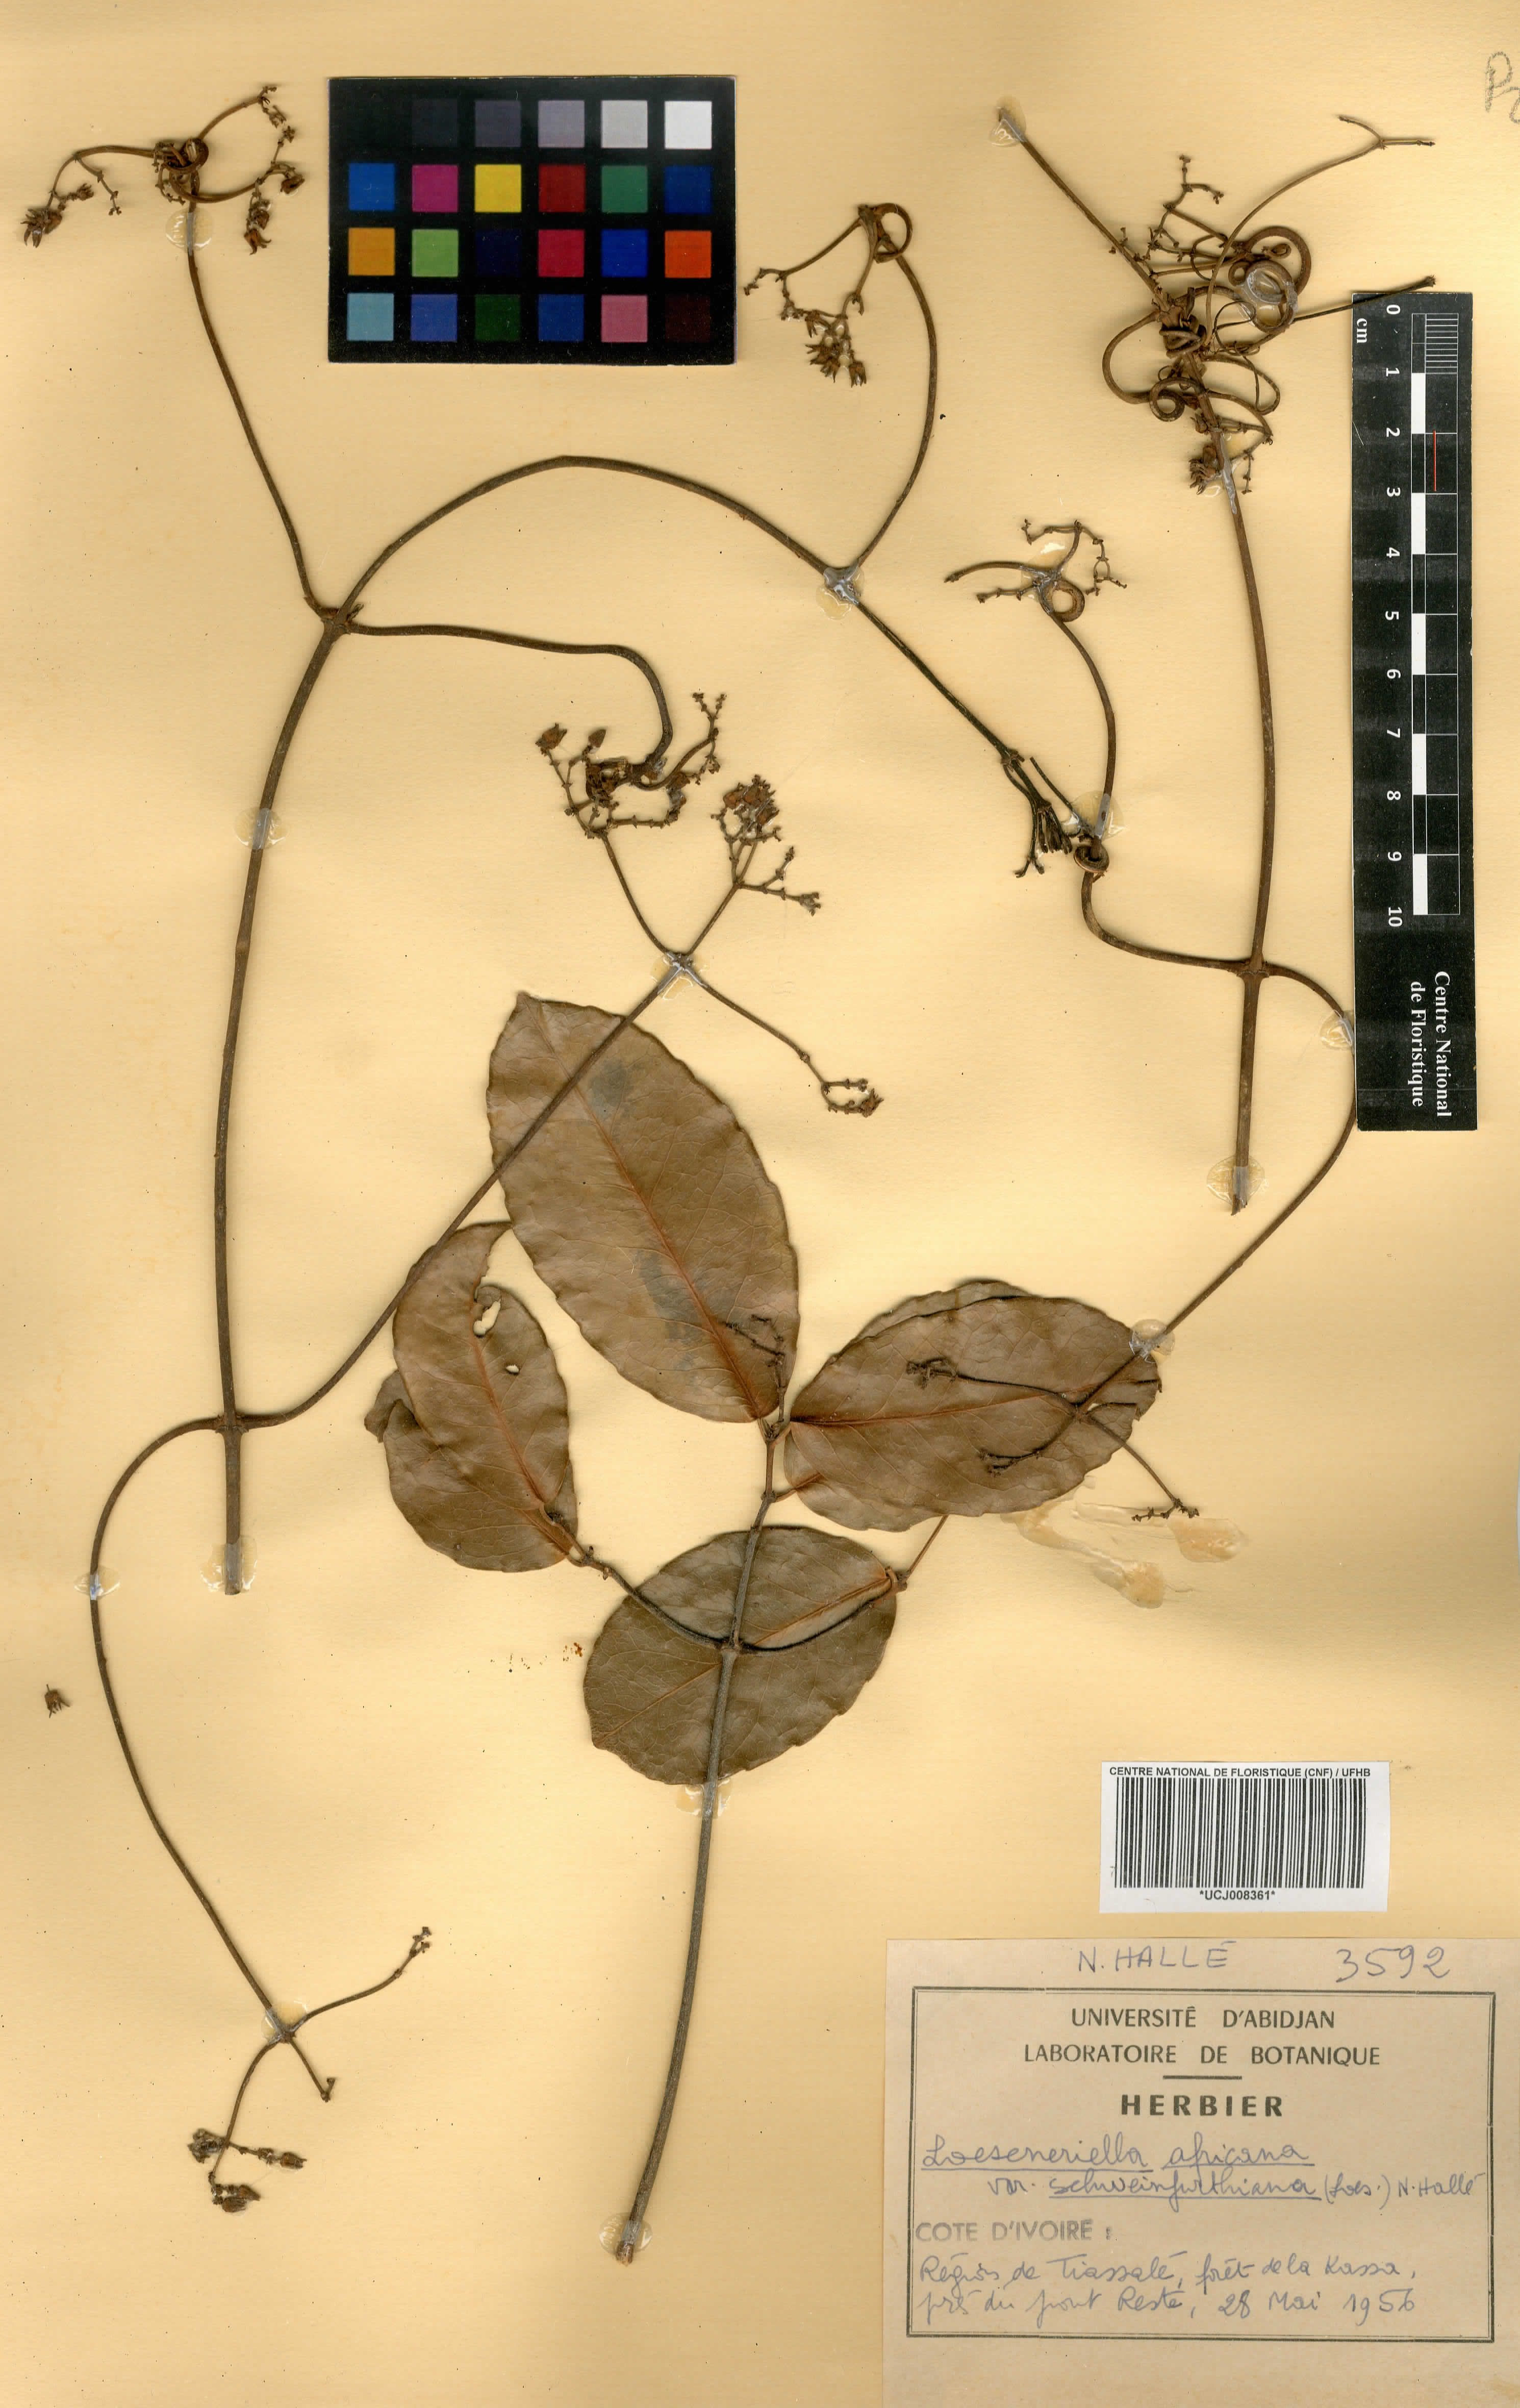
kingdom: Plantae
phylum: Tracheophyta
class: Magnoliopsida
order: Celastrales
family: Celastraceae
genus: Loeseneriella
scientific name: Loeseneriella africana
